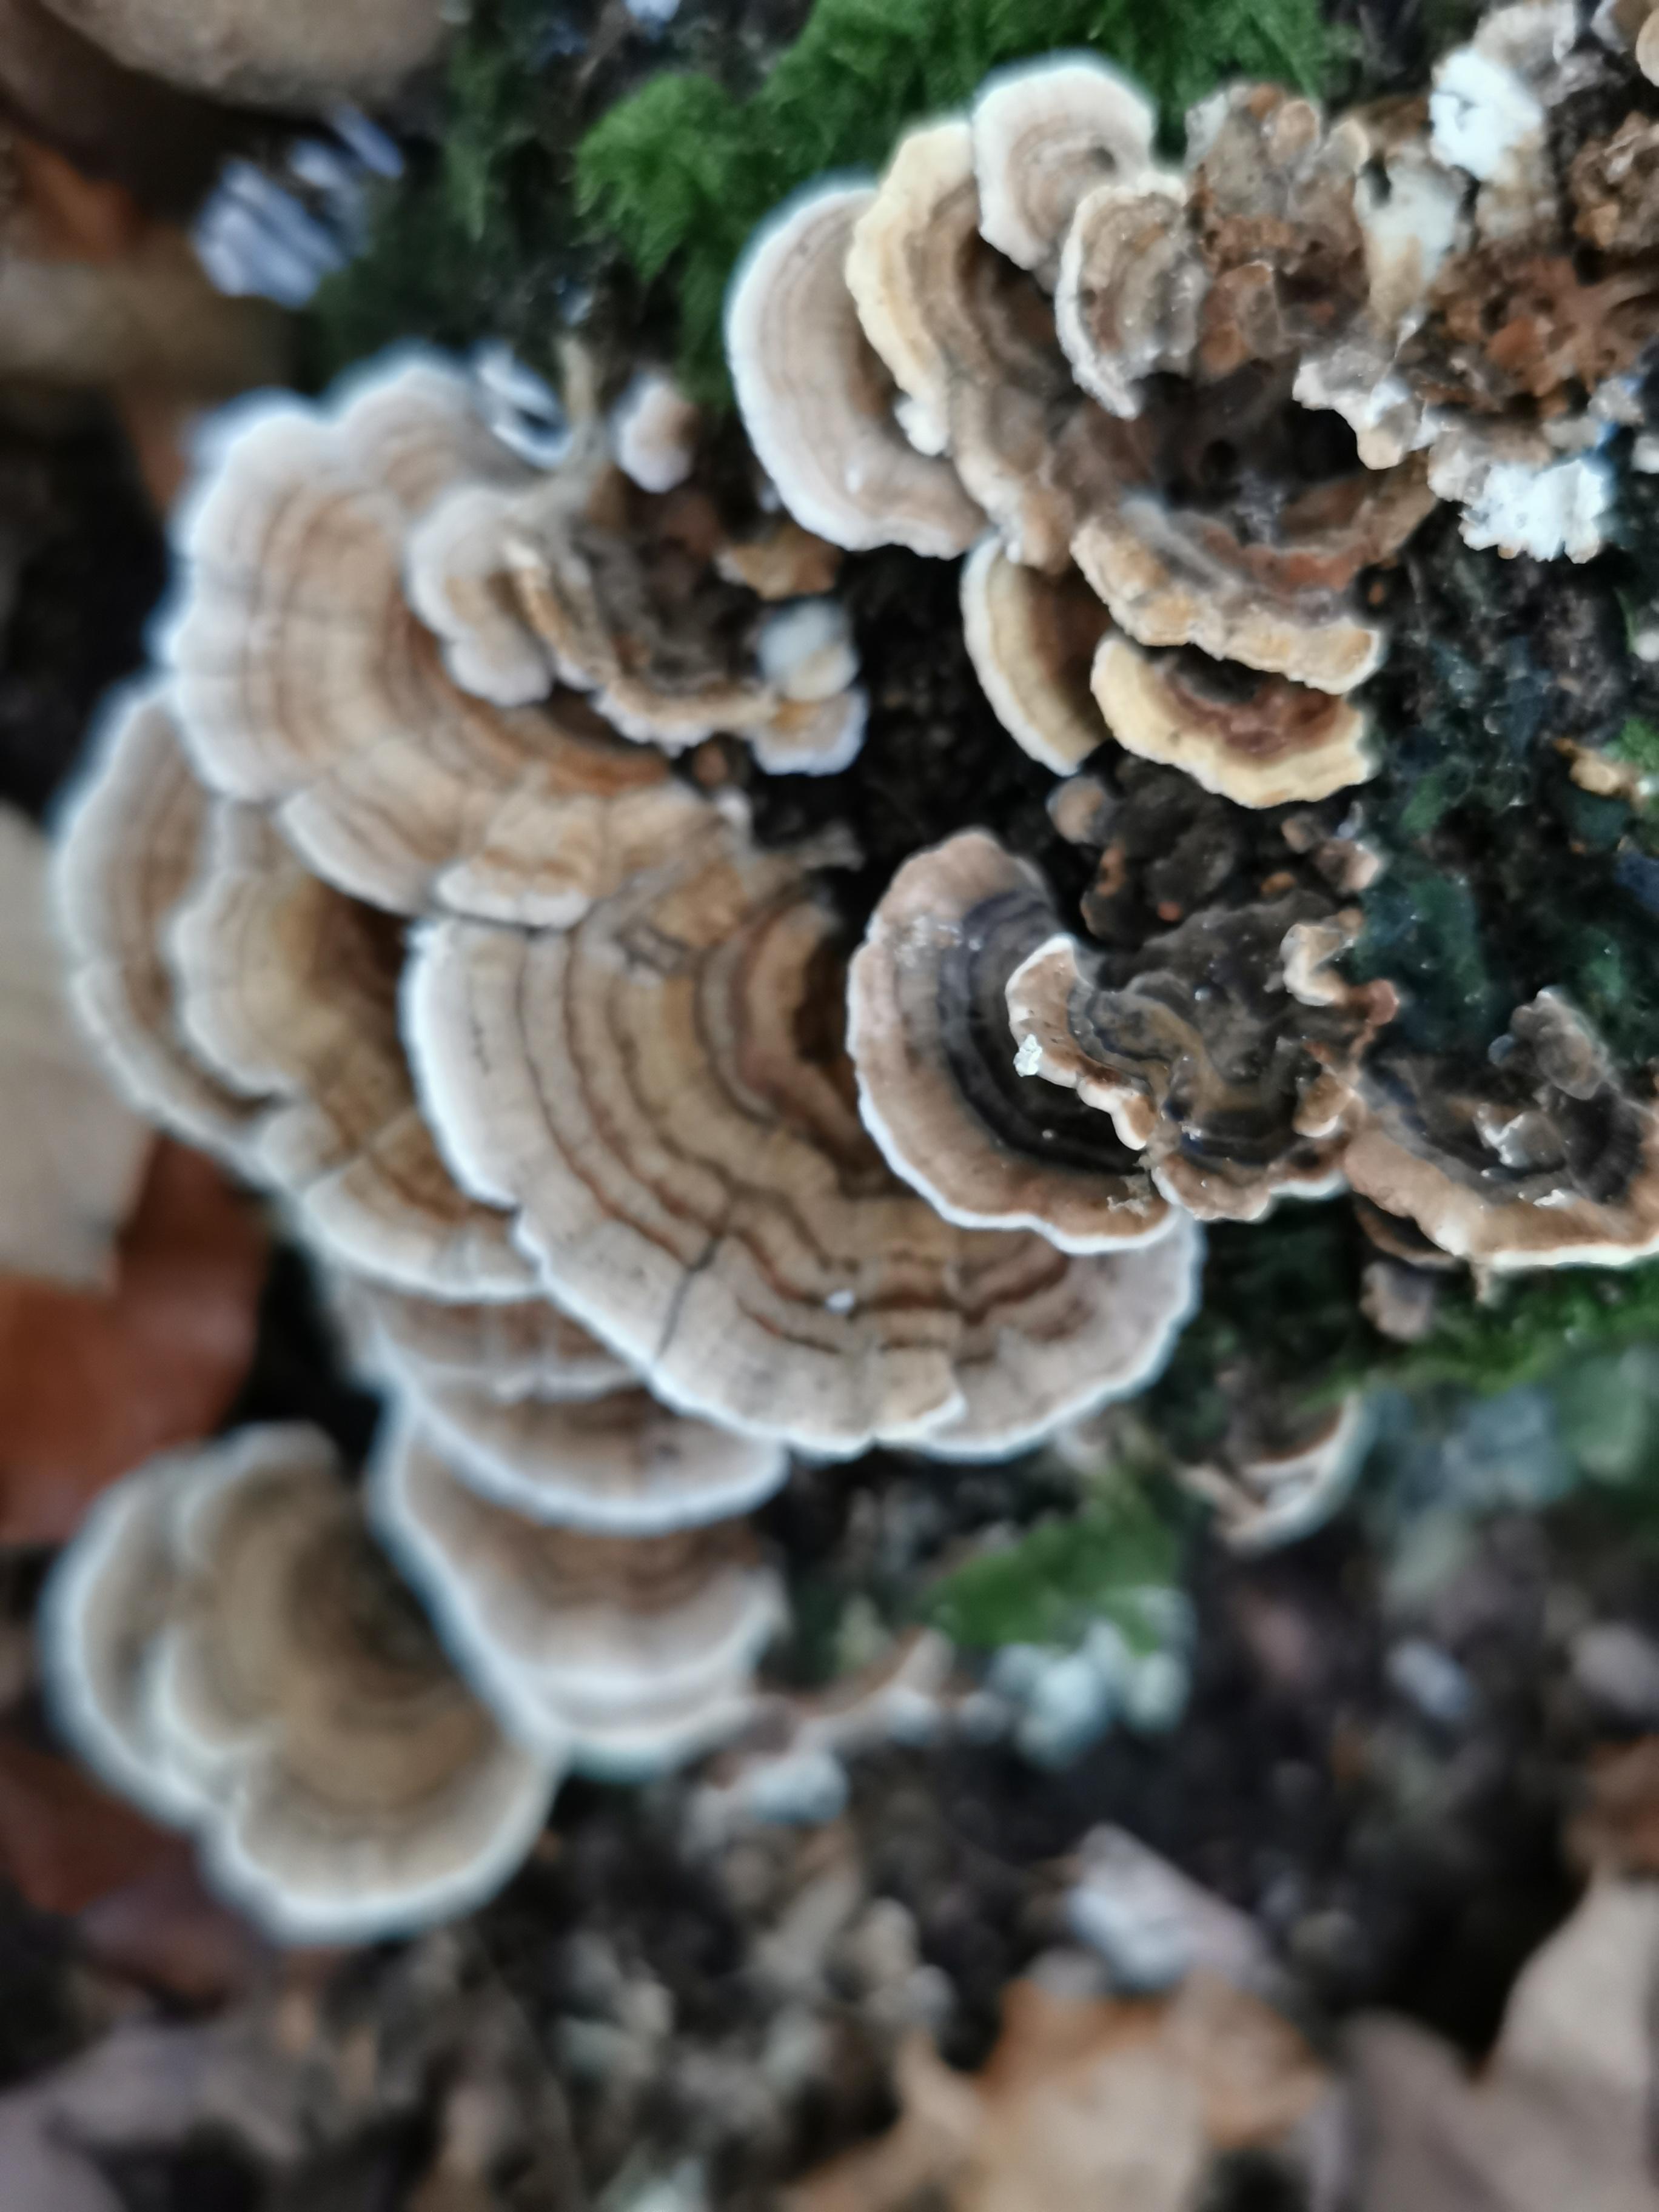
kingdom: Fungi
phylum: Basidiomycota
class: Agaricomycetes
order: Polyporales
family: Polyporaceae
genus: Trametes
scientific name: Trametes versicolor
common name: broget læderporesvamp
